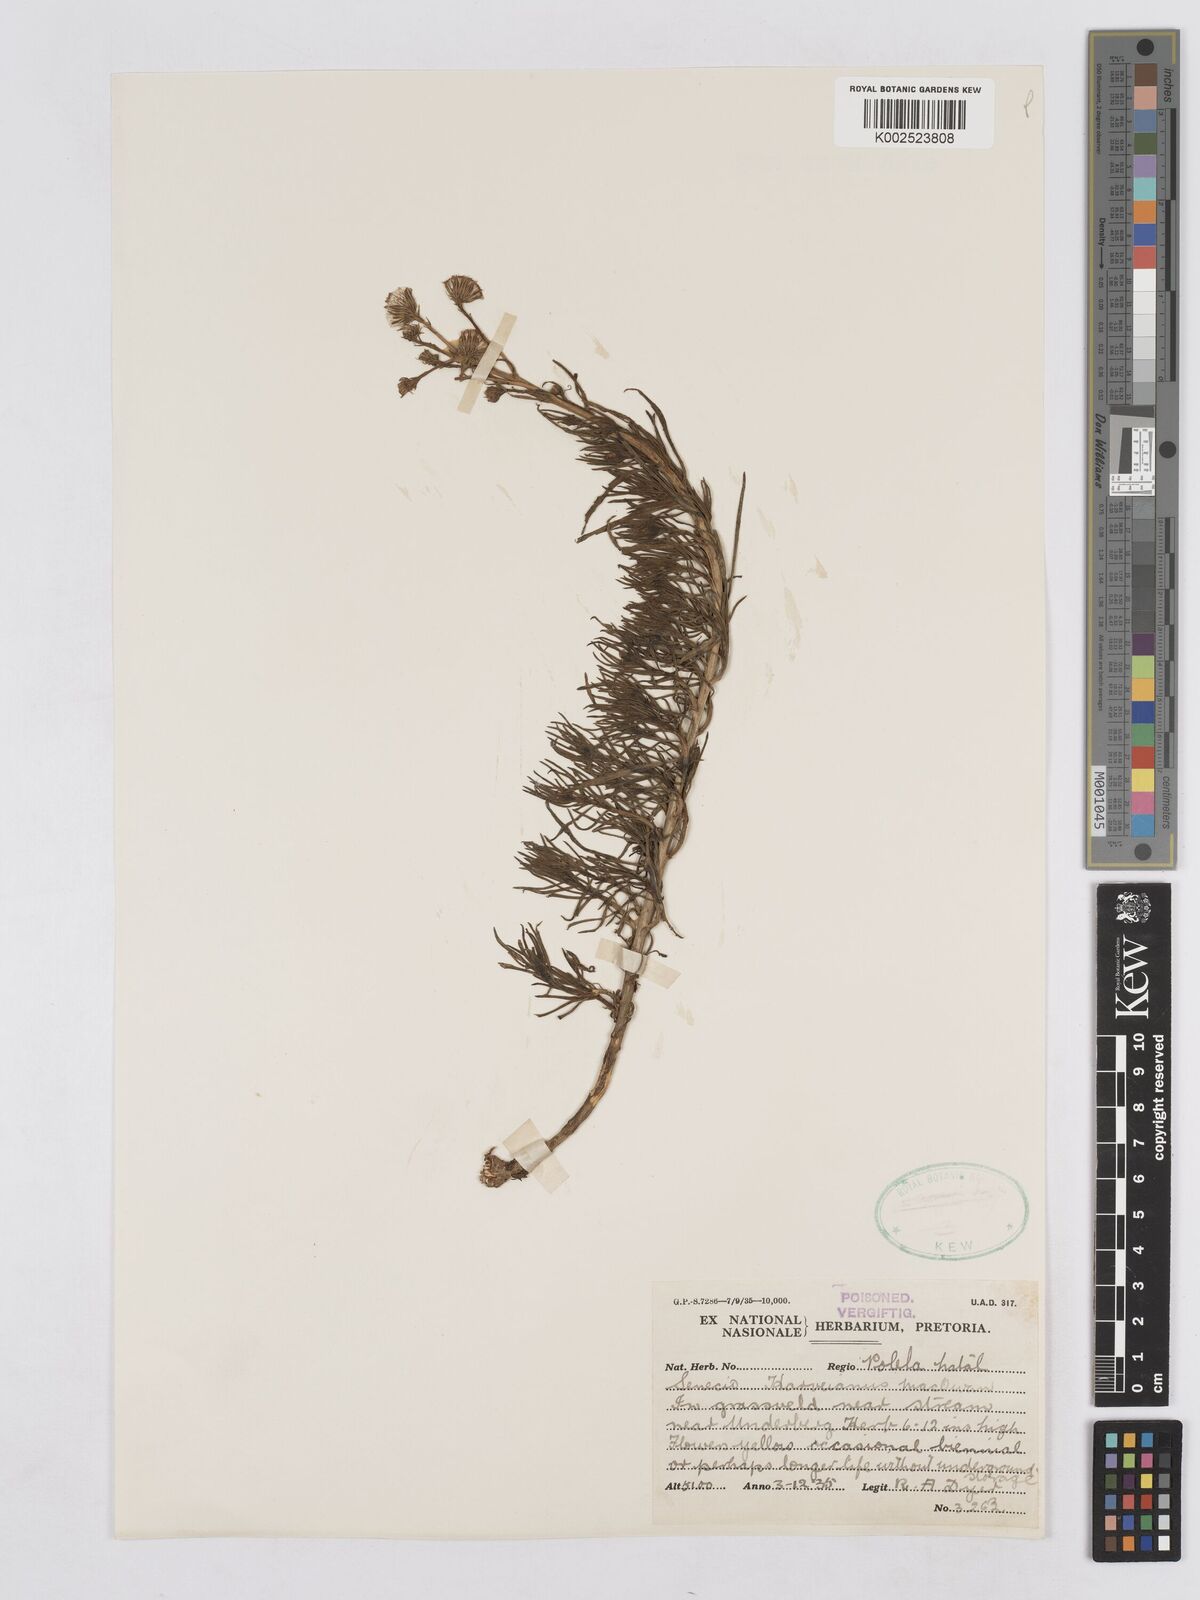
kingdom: Plantae
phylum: Tracheophyta
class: Magnoliopsida
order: Asterales
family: Asteraceae
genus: Senecio
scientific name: Senecio harveyanus
